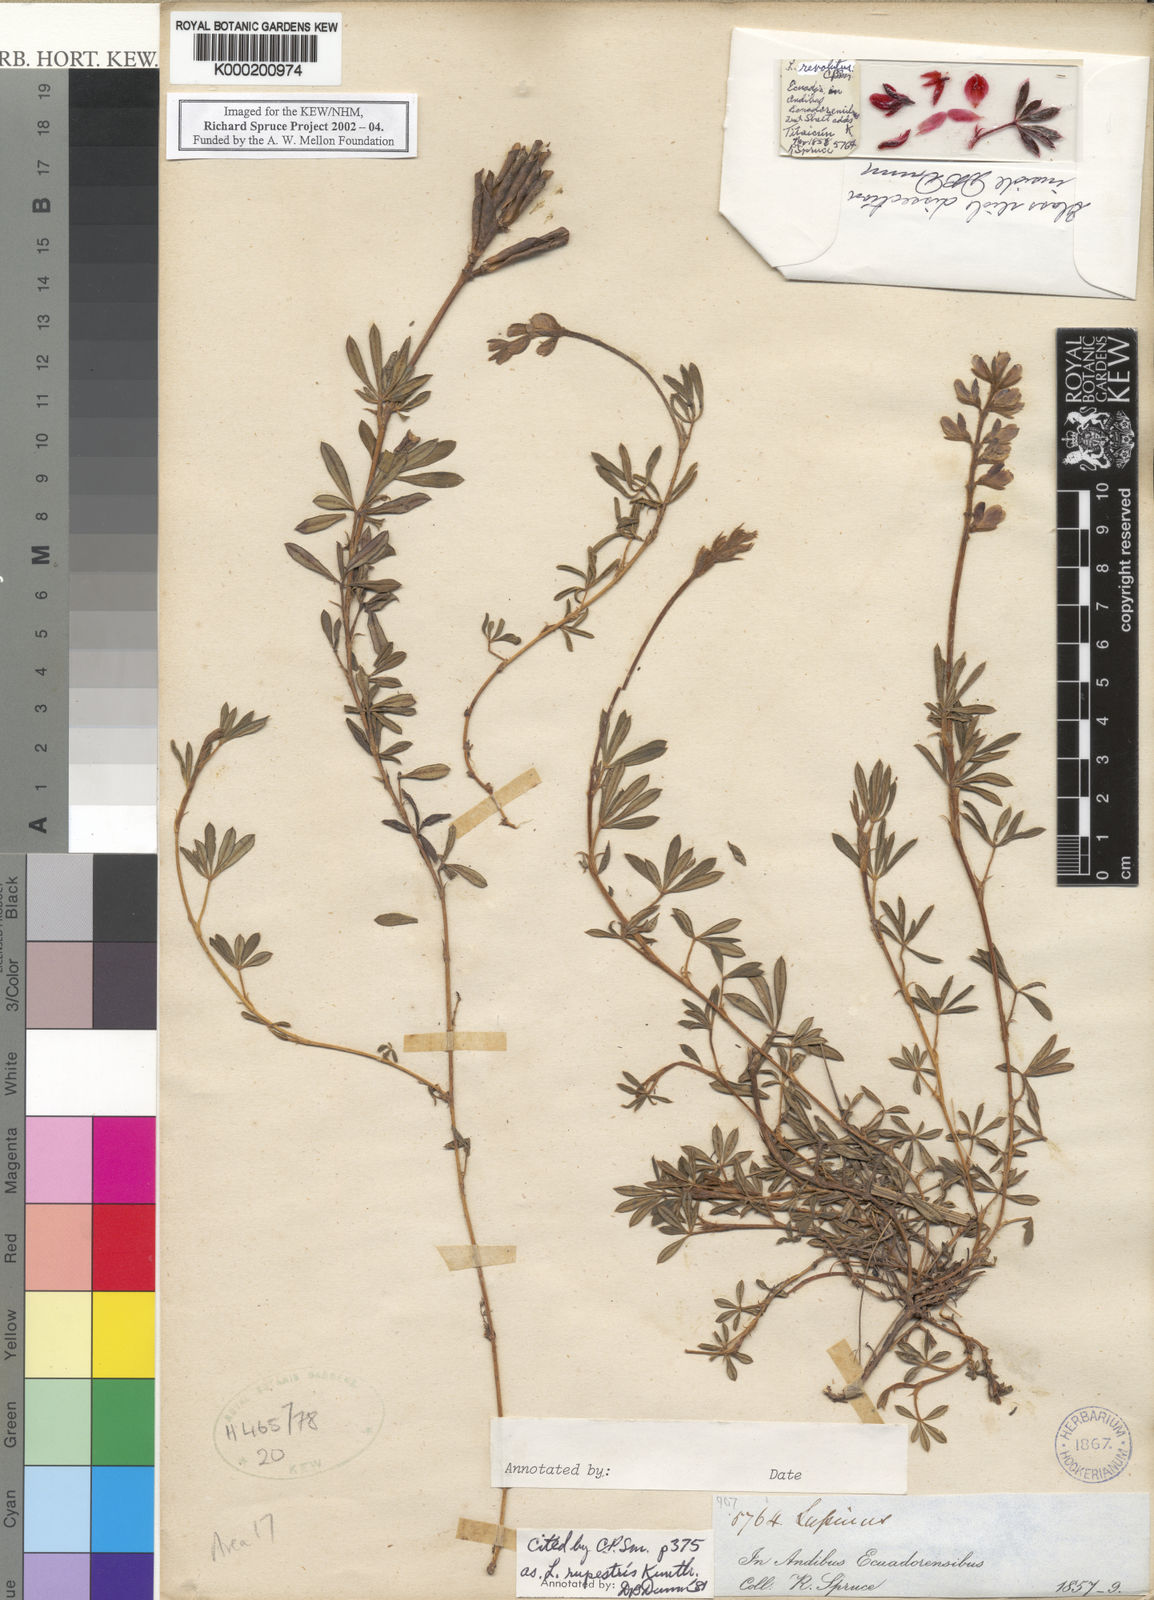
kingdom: Plantae
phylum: Tracheophyta
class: Magnoliopsida
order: Fabales
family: Fabaceae
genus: Lupinus
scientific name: Lupinus revolutus
